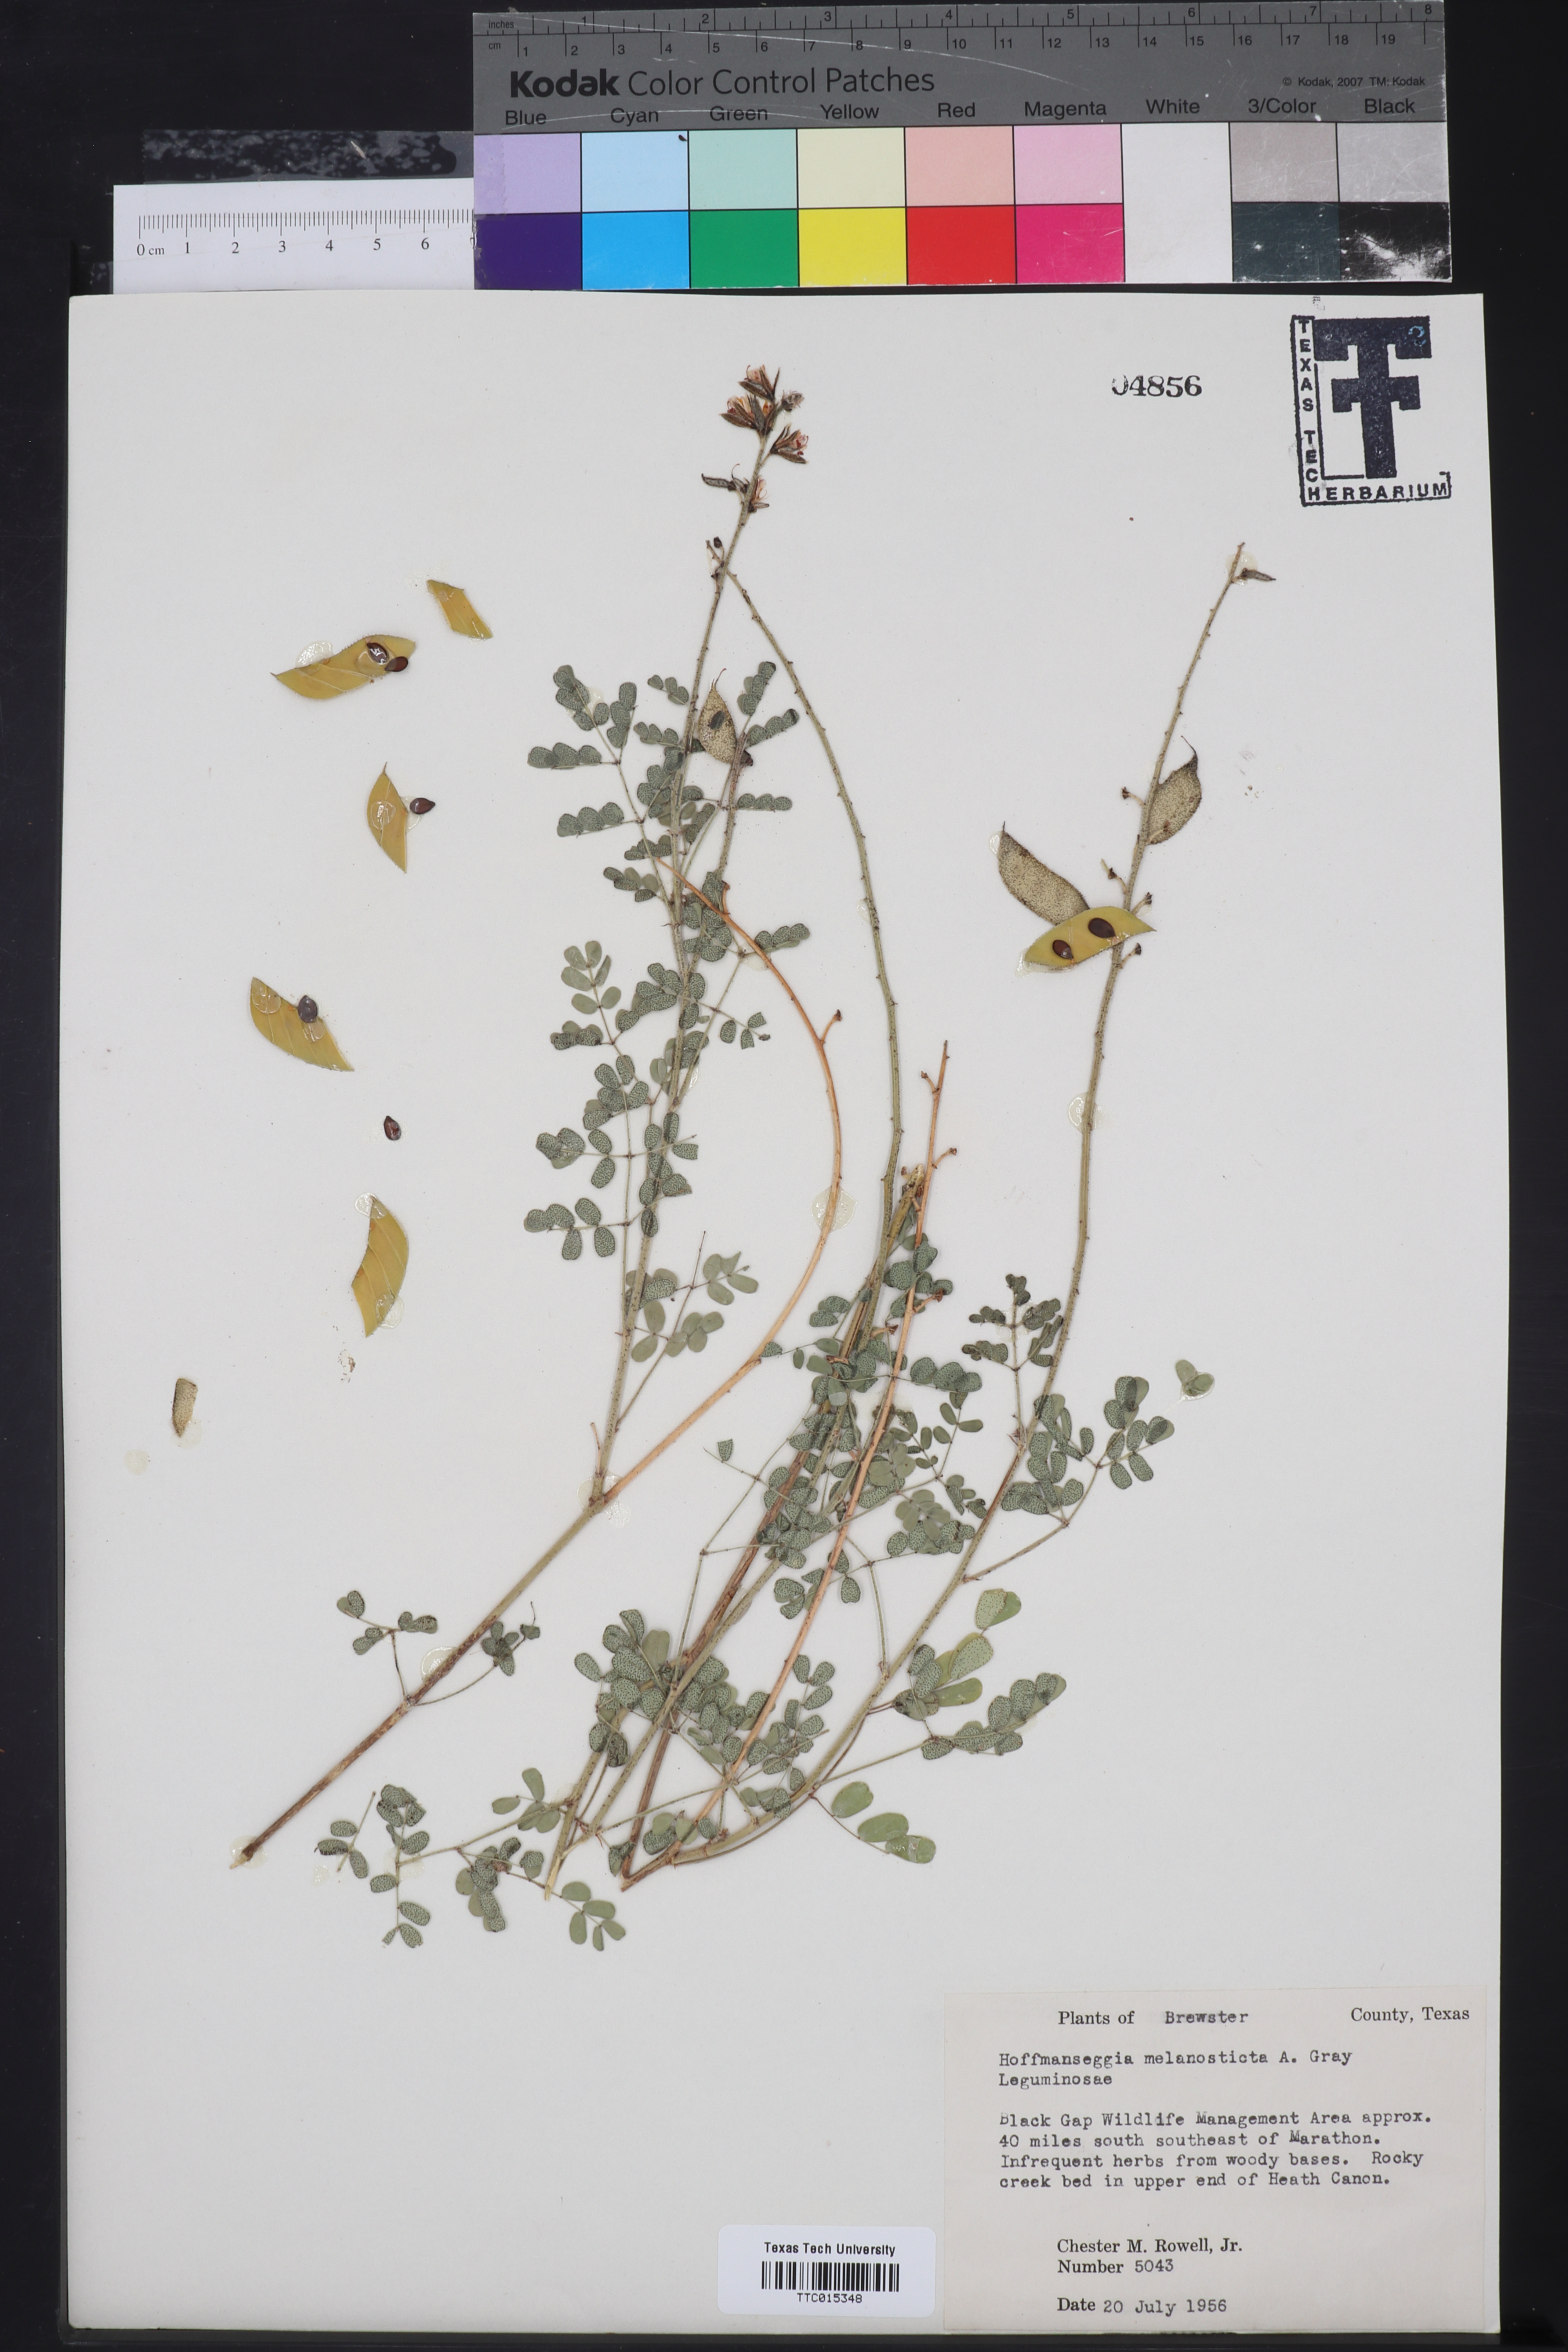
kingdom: Plantae
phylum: Tracheophyta
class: Magnoliopsida
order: Fabales
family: Fabaceae
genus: Pomaria
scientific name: Pomaria melanosticta
